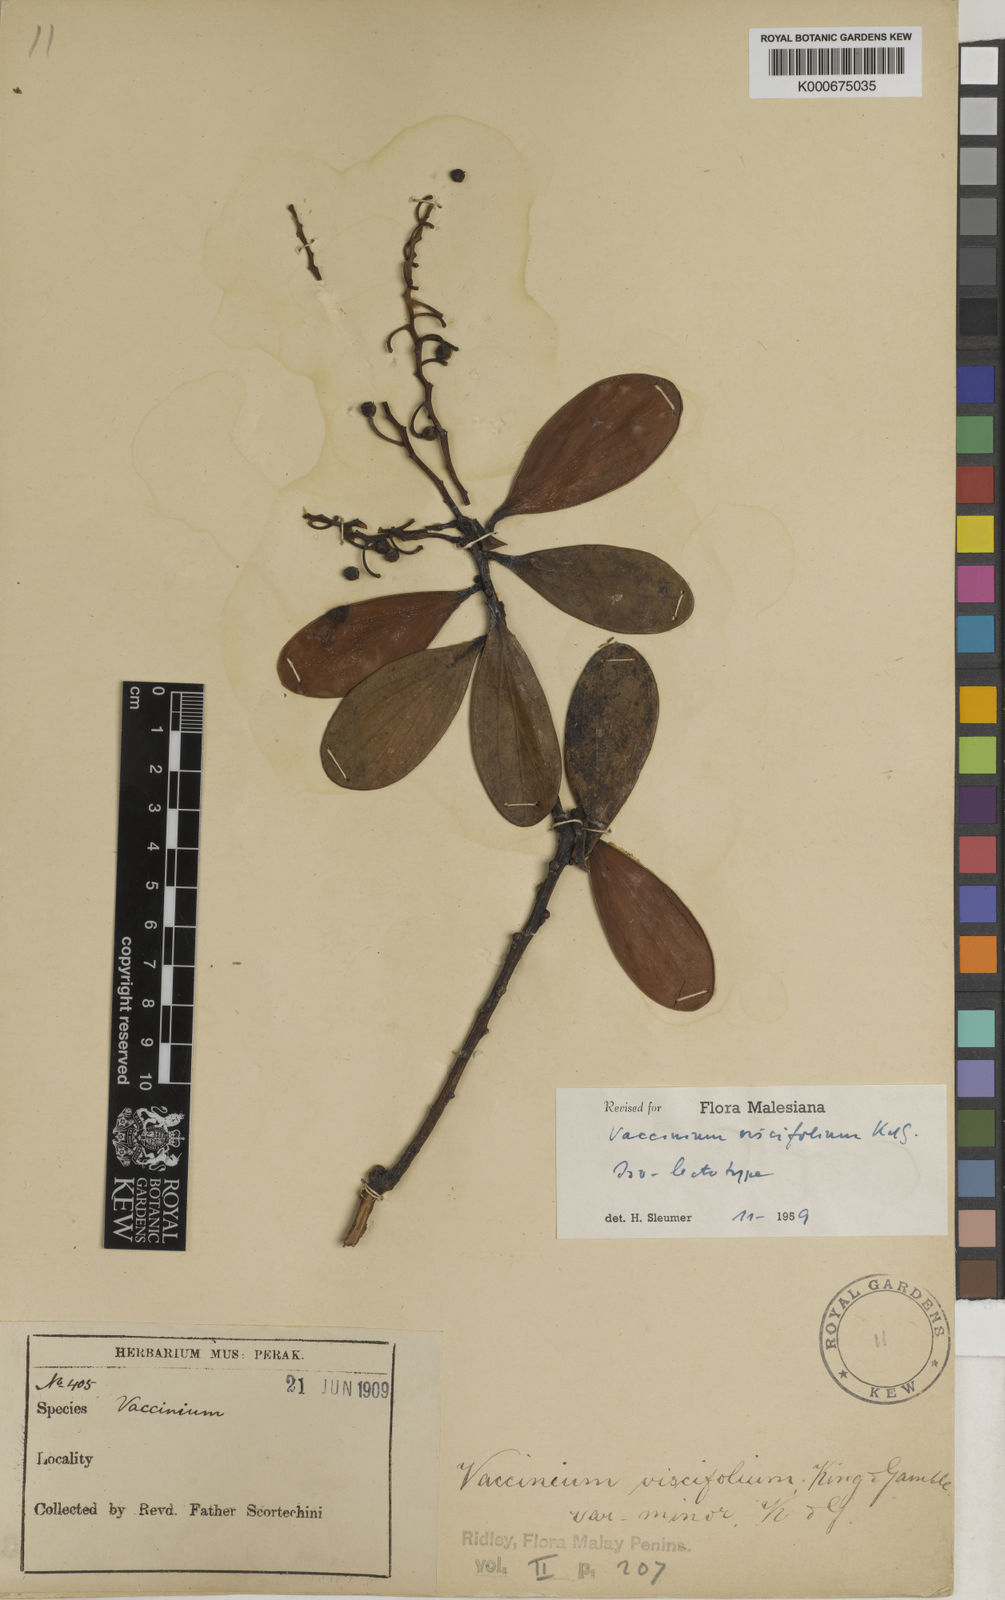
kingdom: Plantae
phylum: Tracheophyta
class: Magnoliopsida
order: Ericales
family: Ericaceae
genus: Vaccinium
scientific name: Vaccinium viscifolium
